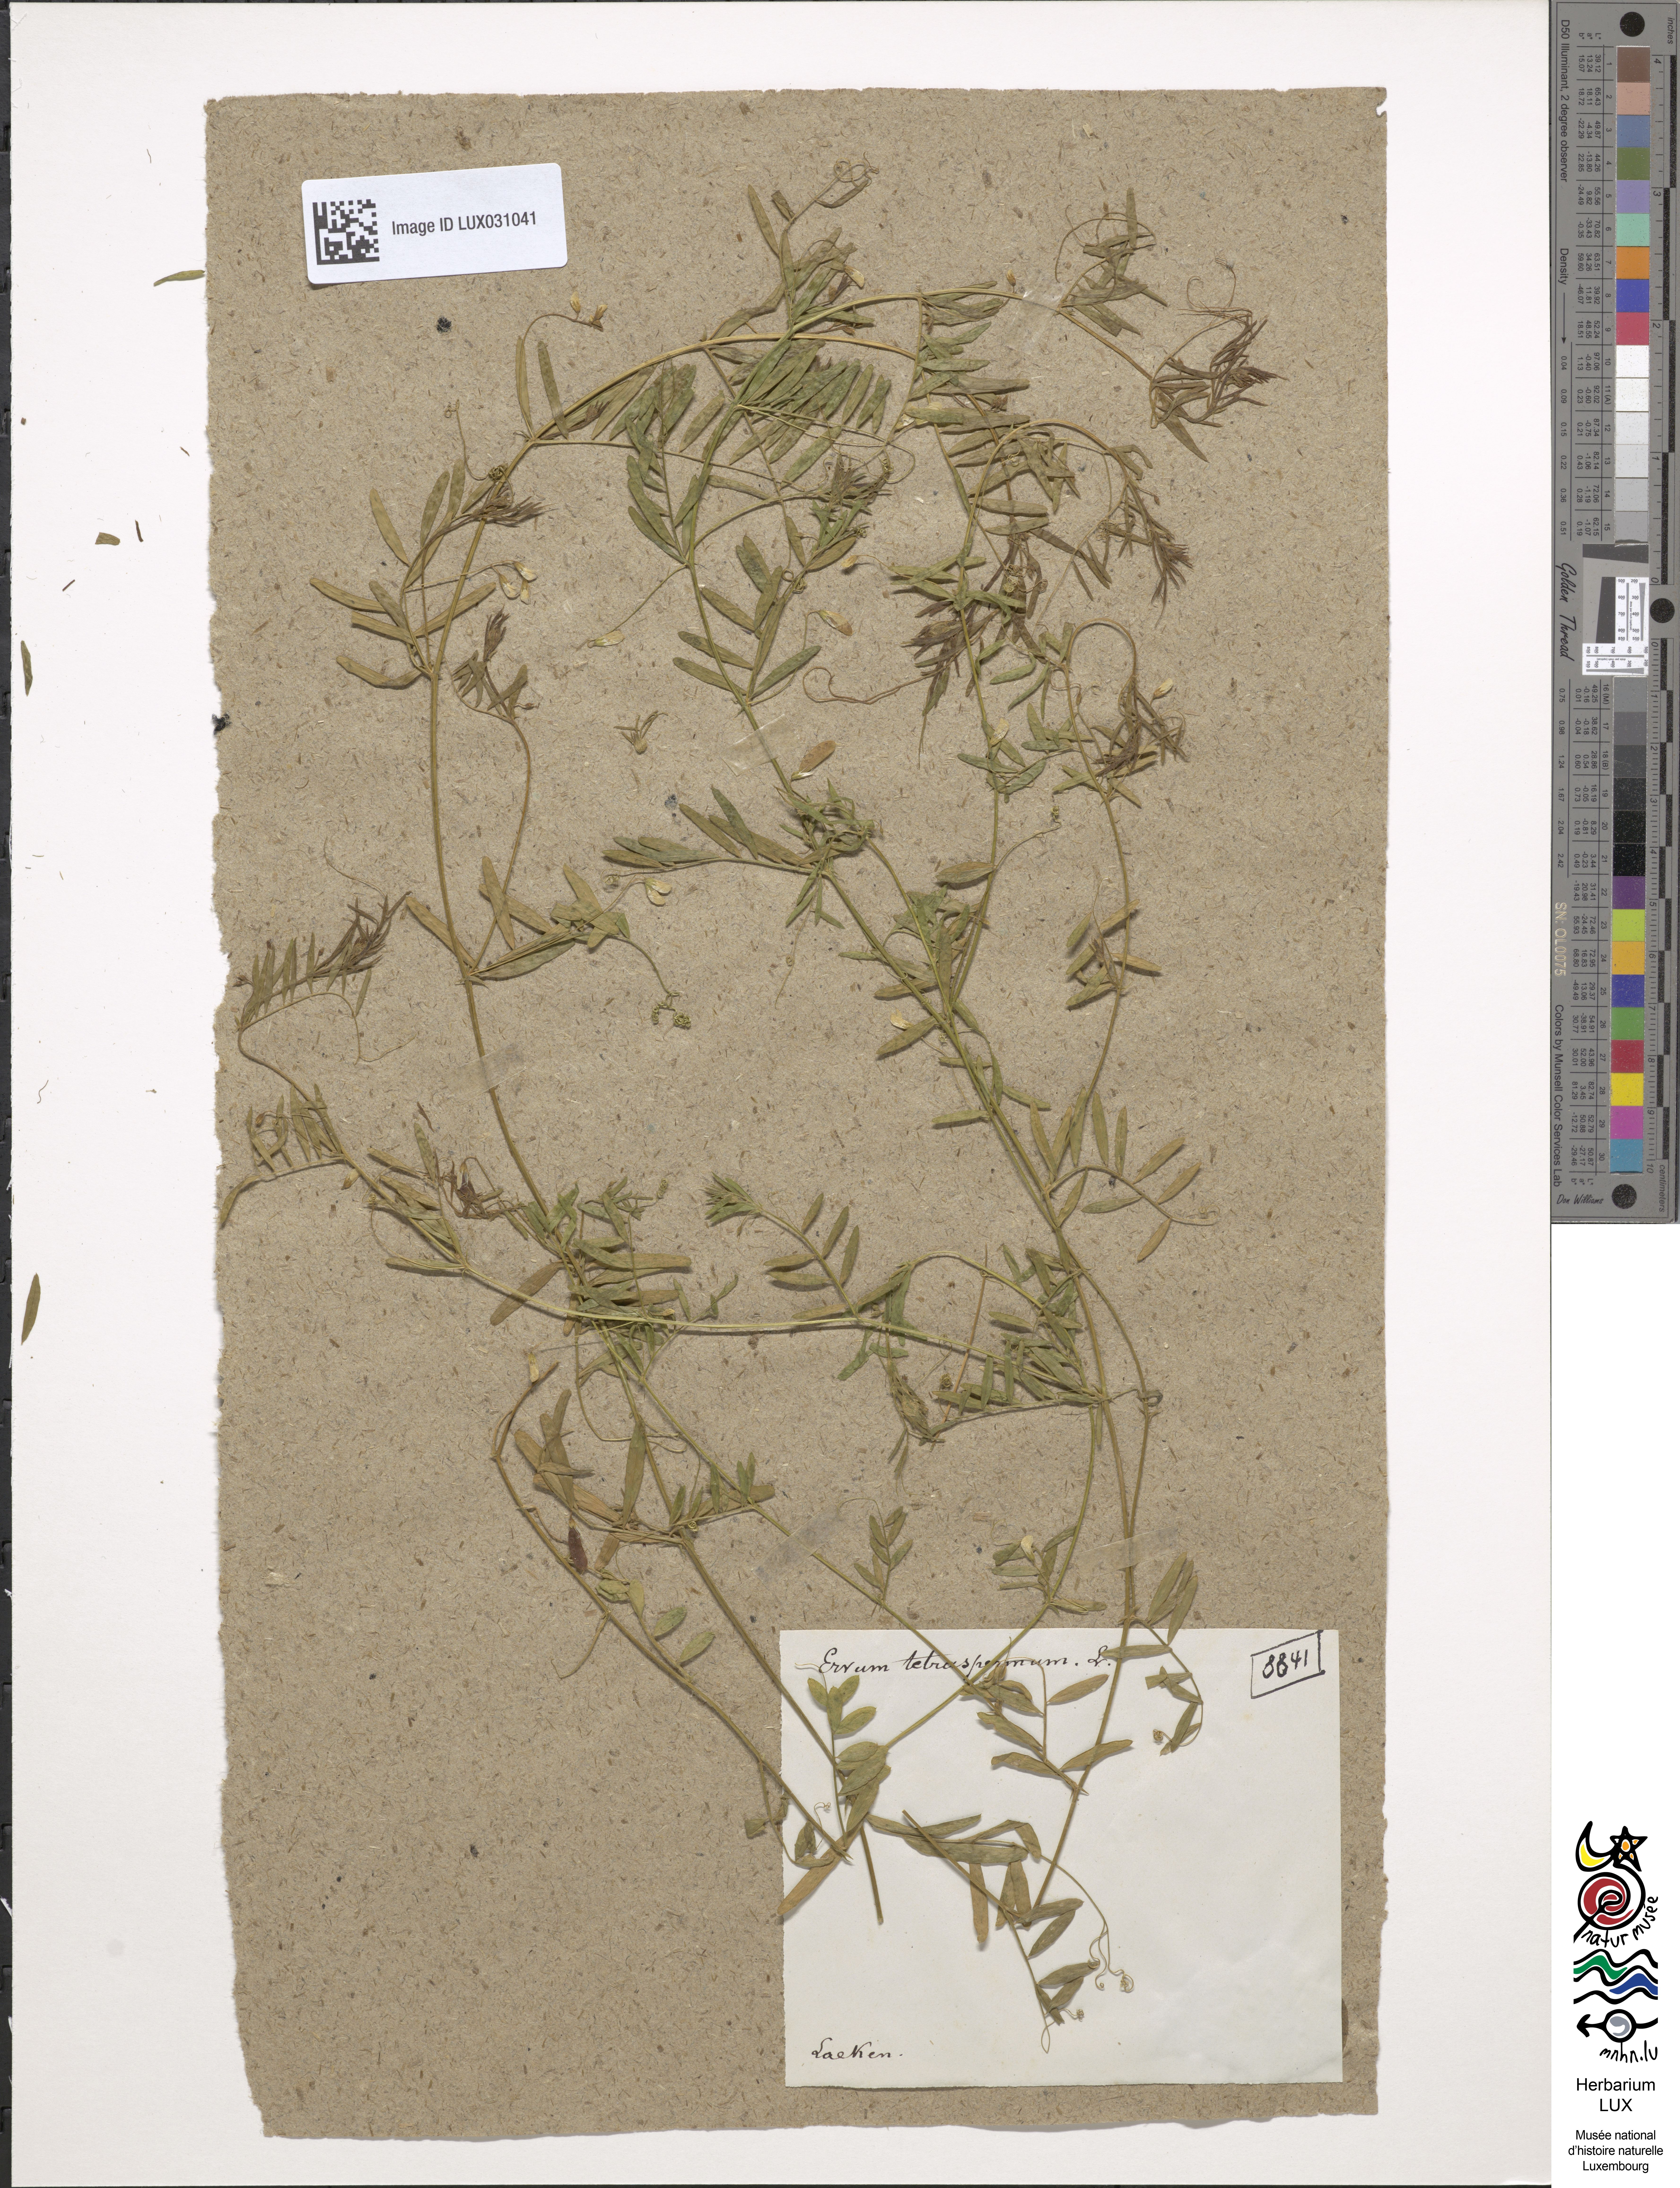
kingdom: Plantae
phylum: Tracheophyta
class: Magnoliopsida
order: Fabales
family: Fabaceae
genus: Vicia
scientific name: Vicia tetrasperma
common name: Smooth tare
